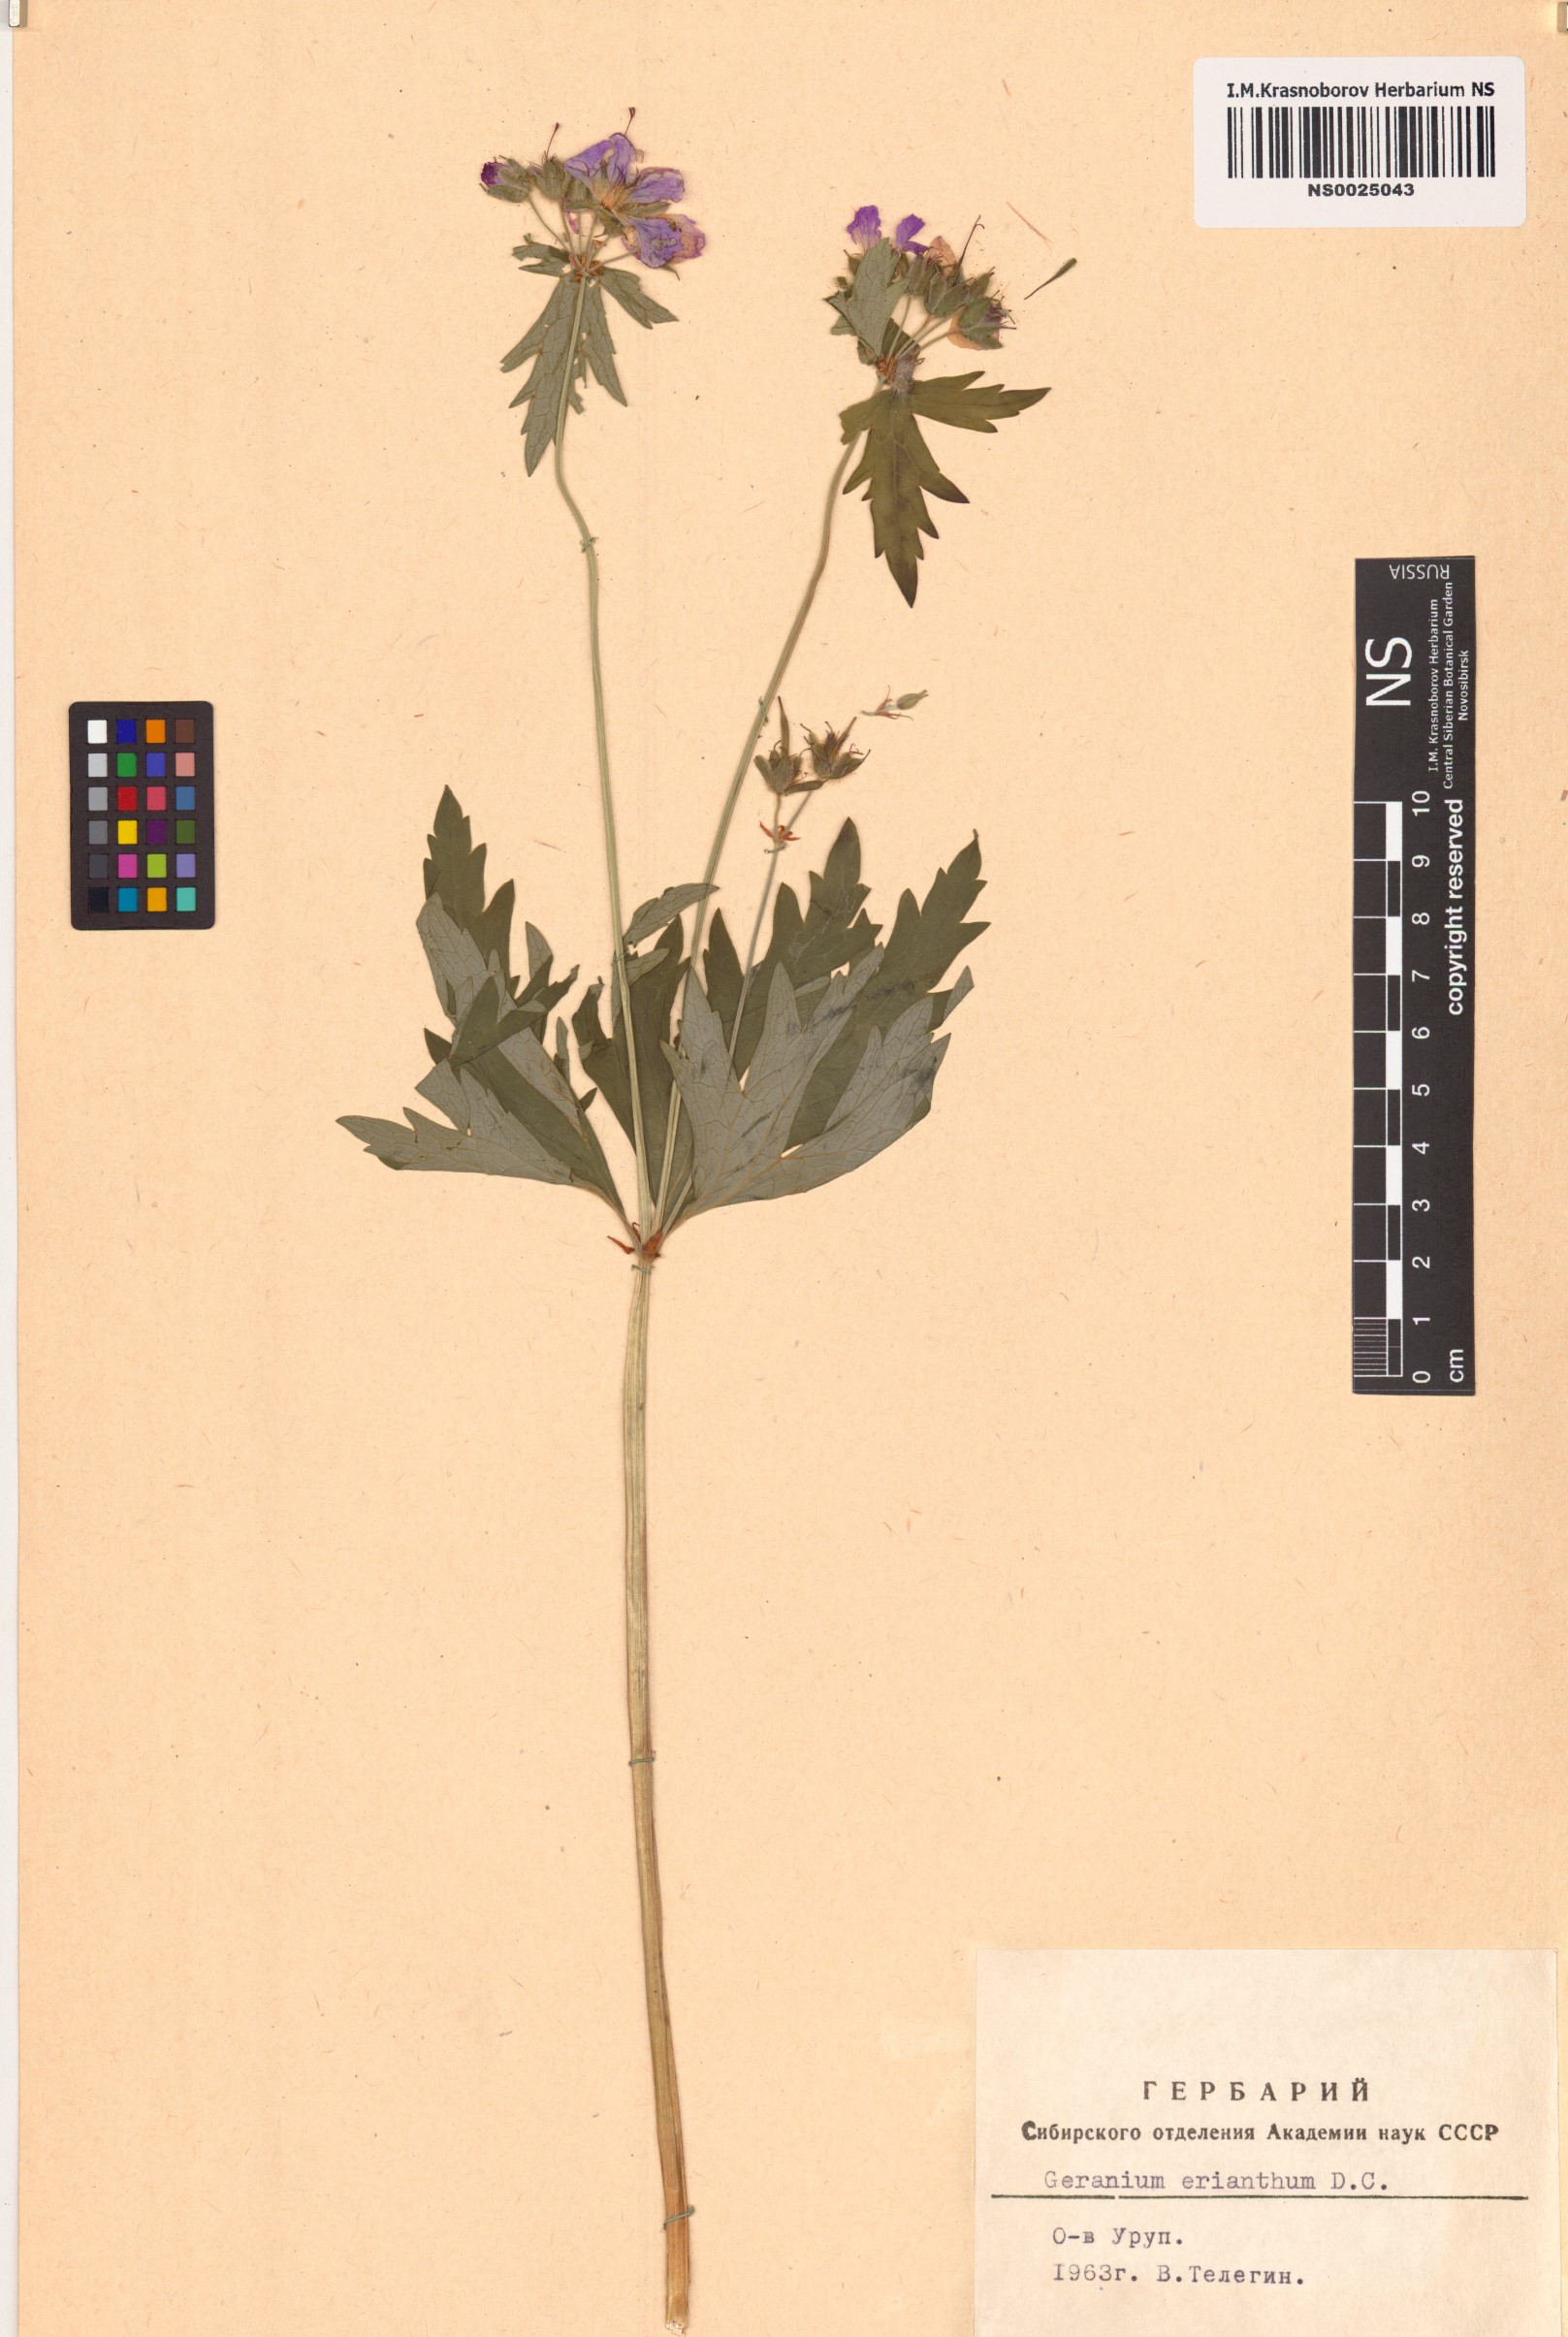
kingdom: Plantae
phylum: Tracheophyta
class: Magnoliopsida
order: Geraniales
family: Geraniaceae
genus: Geranium
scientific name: Geranium erianthum
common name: Northern crane's-bill
